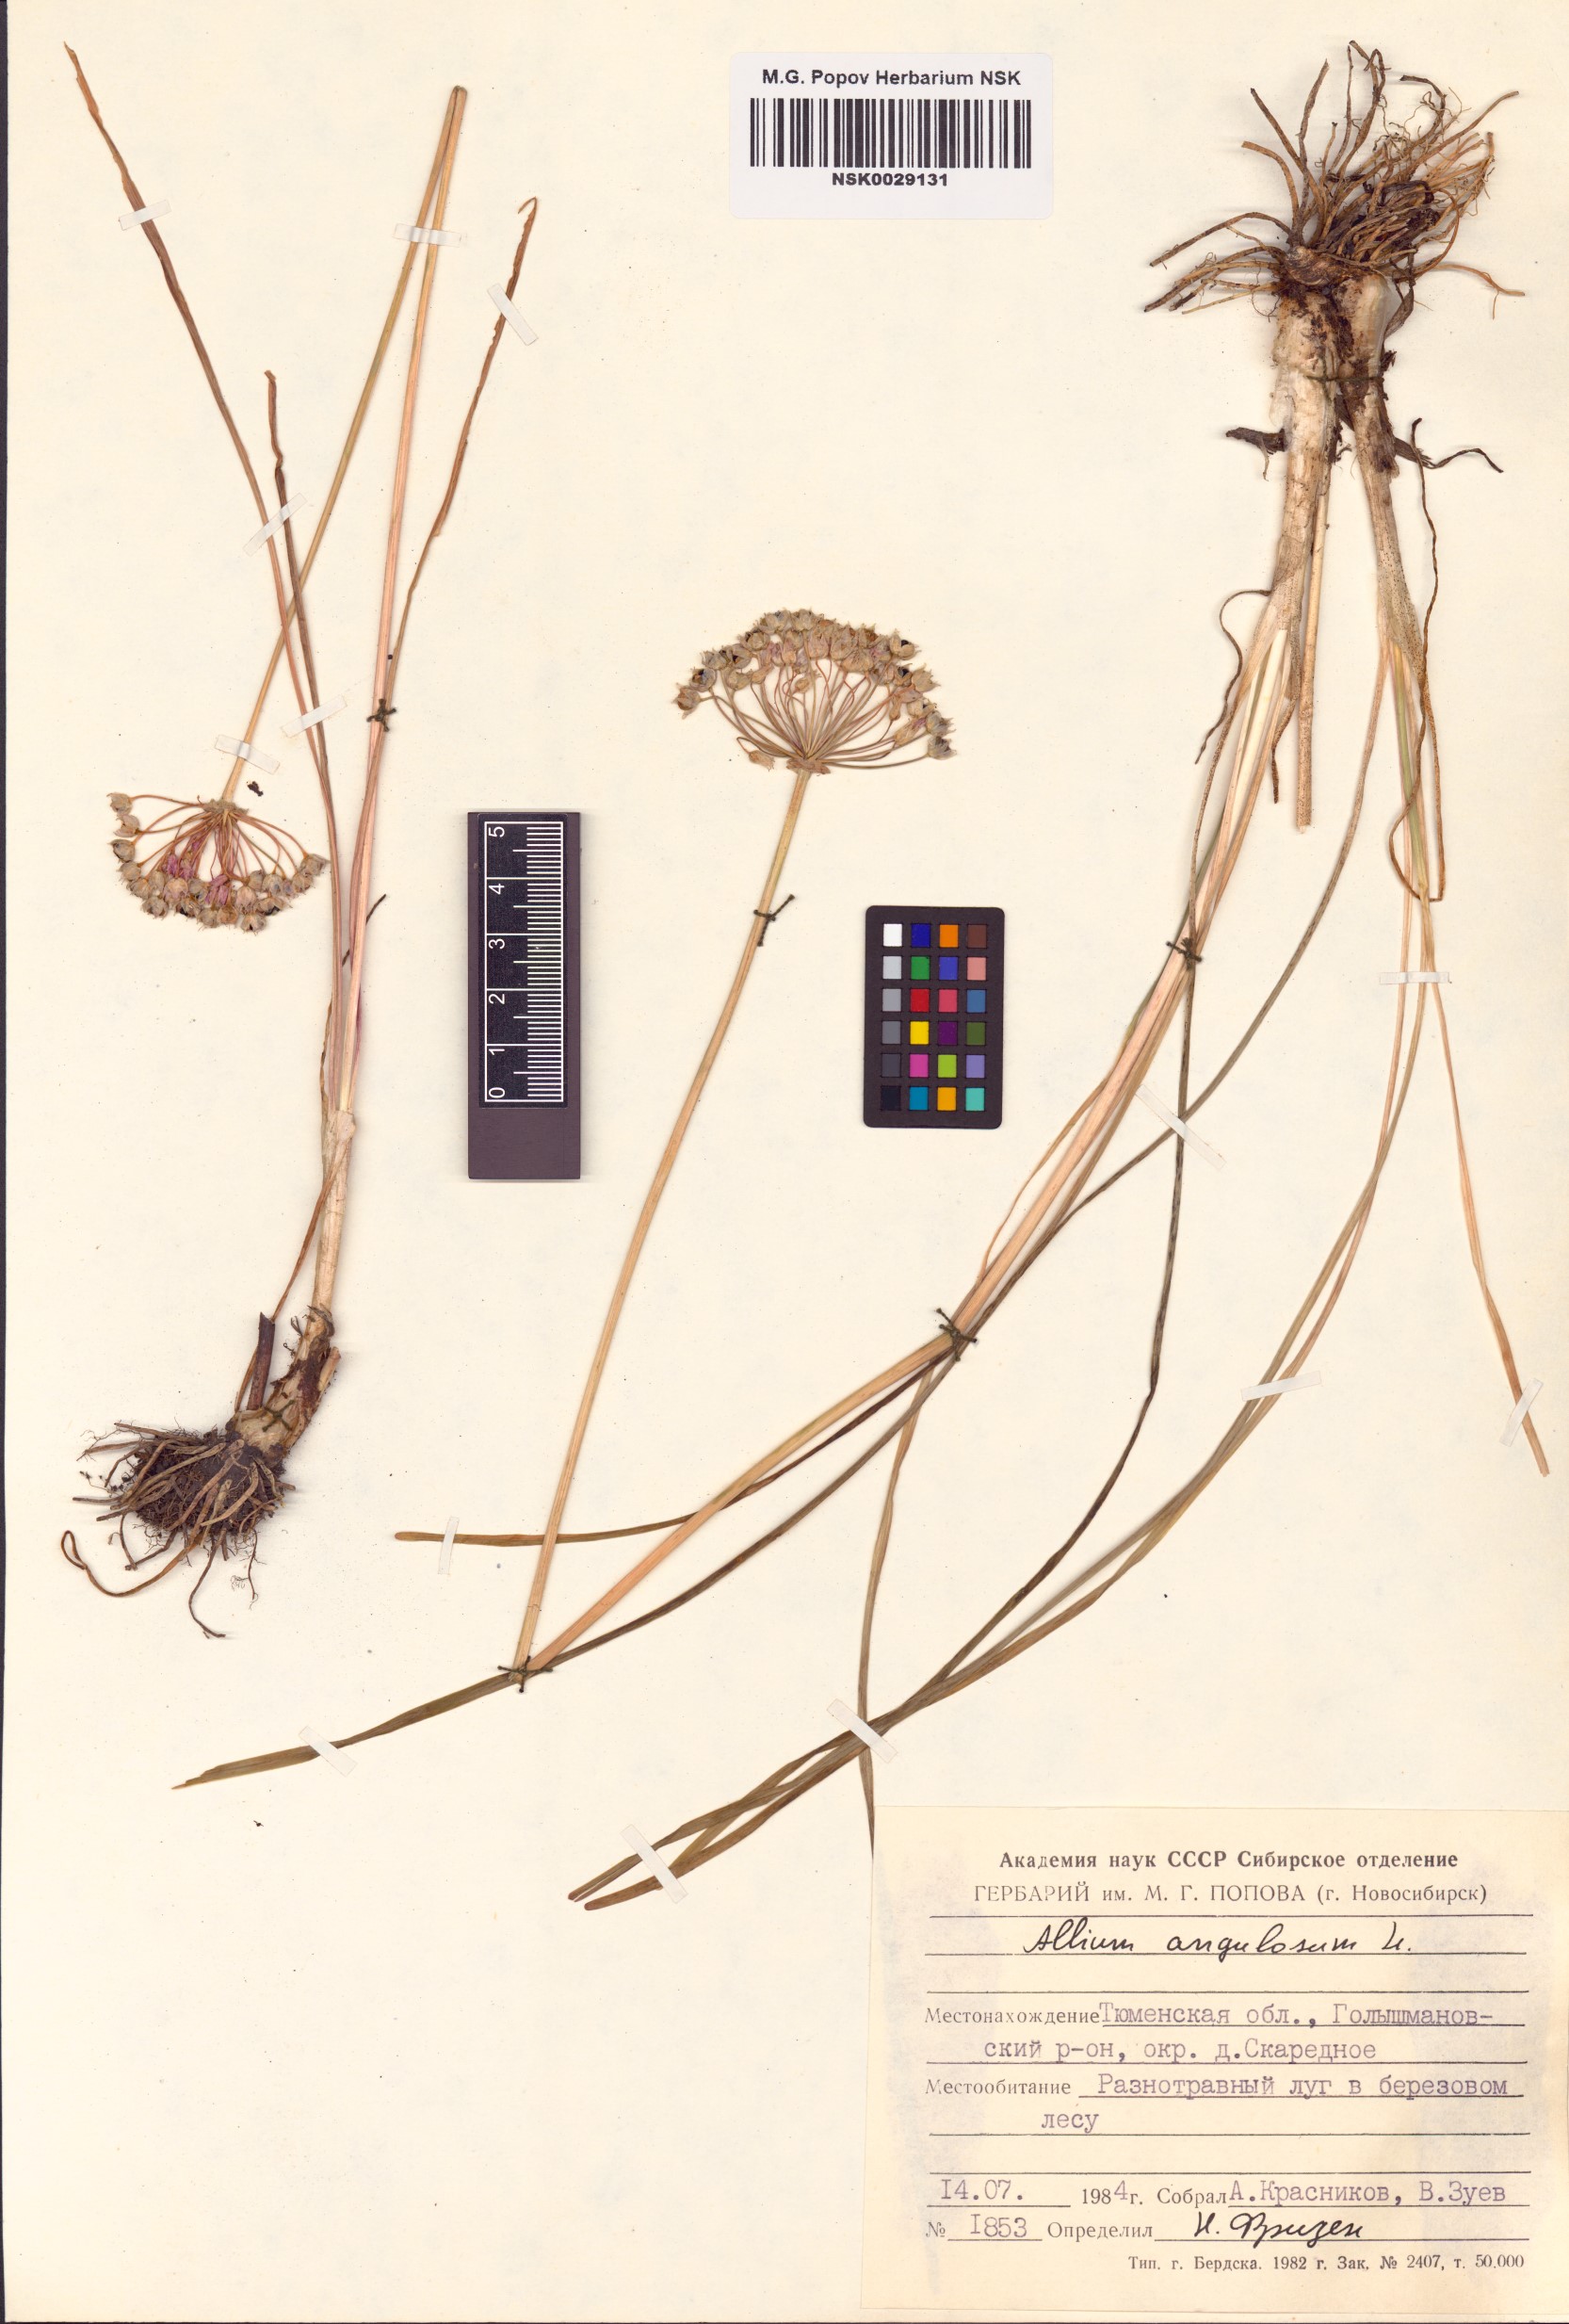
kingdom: Plantae
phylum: Tracheophyta
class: Liliopsida
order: Asparagales
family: Amaryllidaceae
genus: Allium
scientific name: Allium angulosum
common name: Mouse garlic
